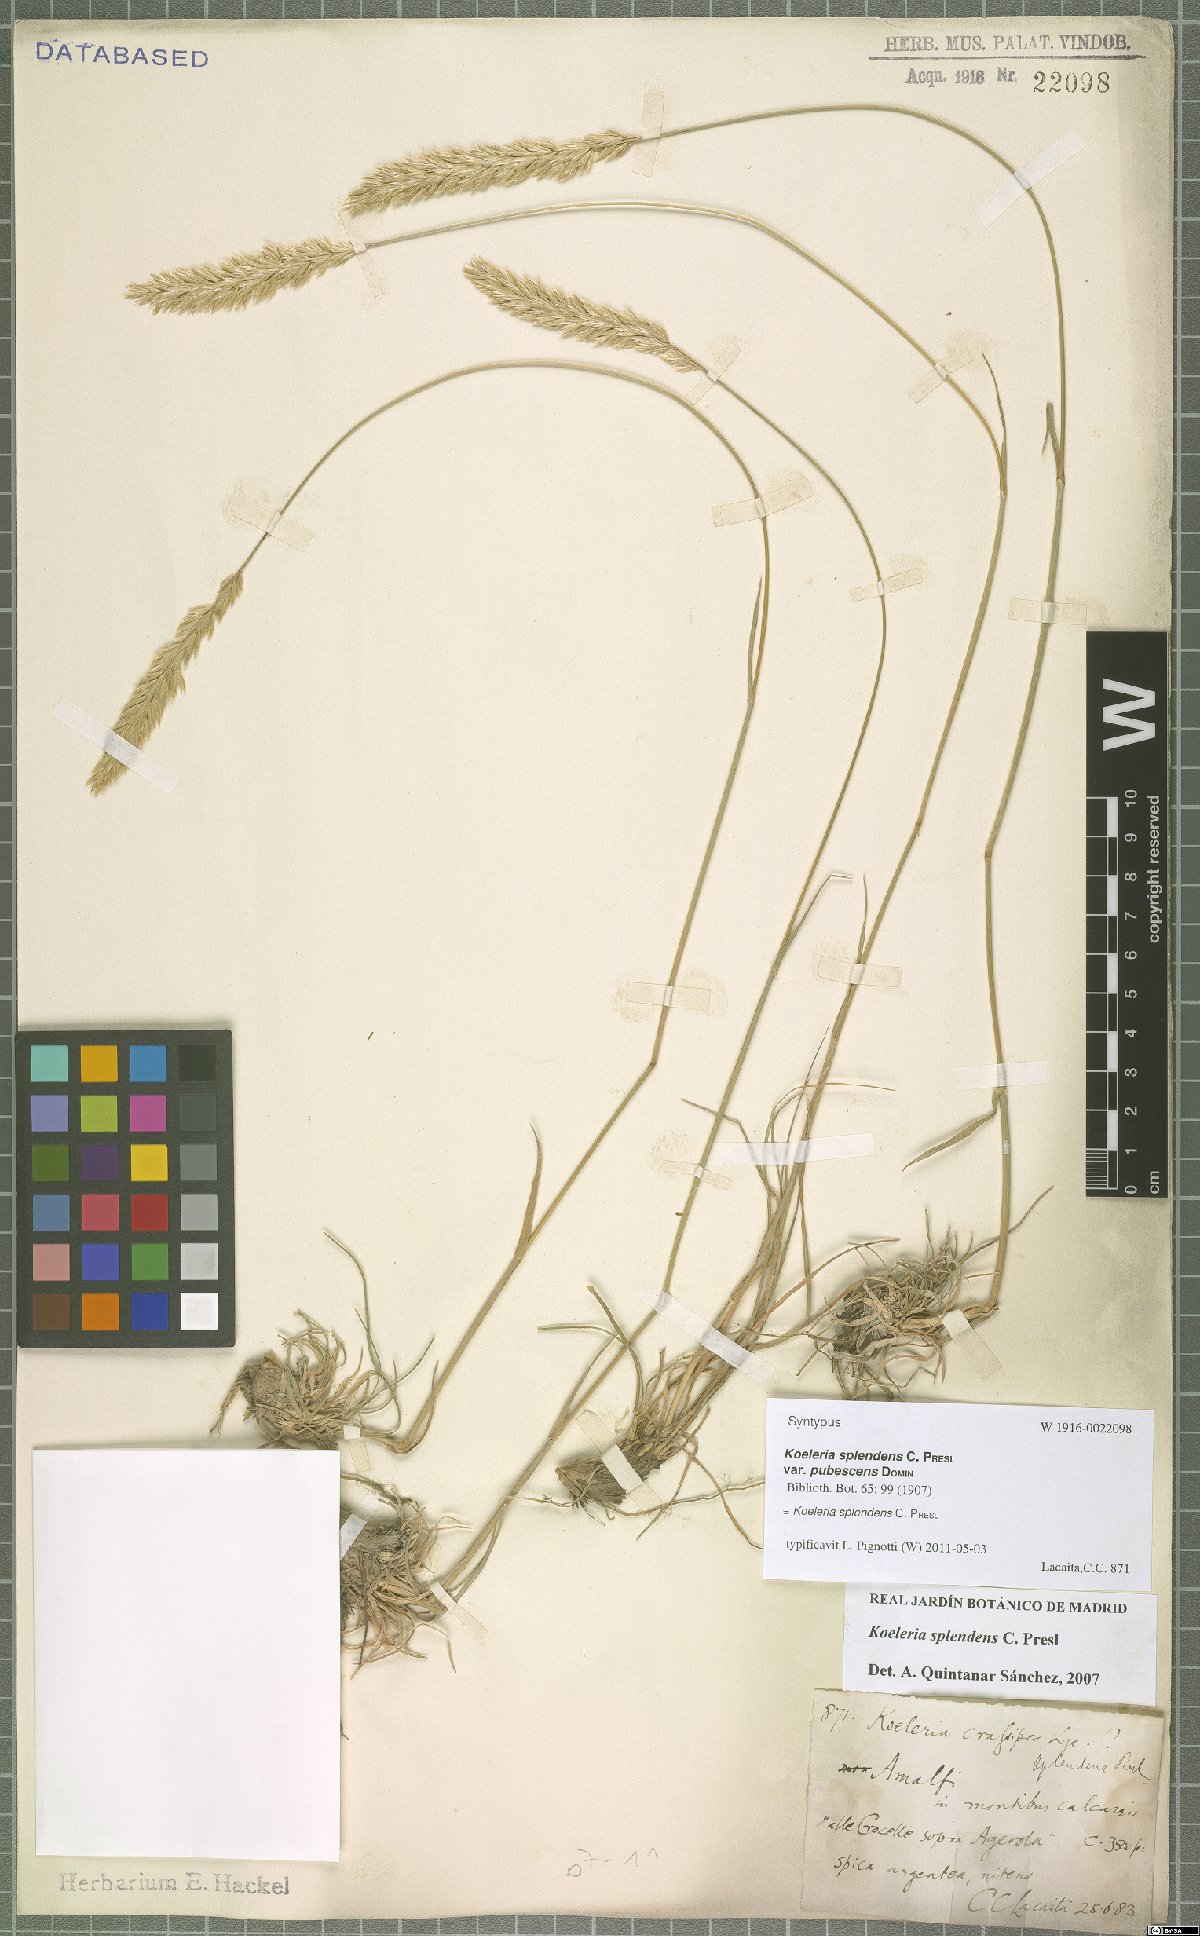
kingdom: Plantae
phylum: Tracheophyta
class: Liliopsida
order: Poales
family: Poaceae
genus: Koeleria
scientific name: Koeleria splendens
